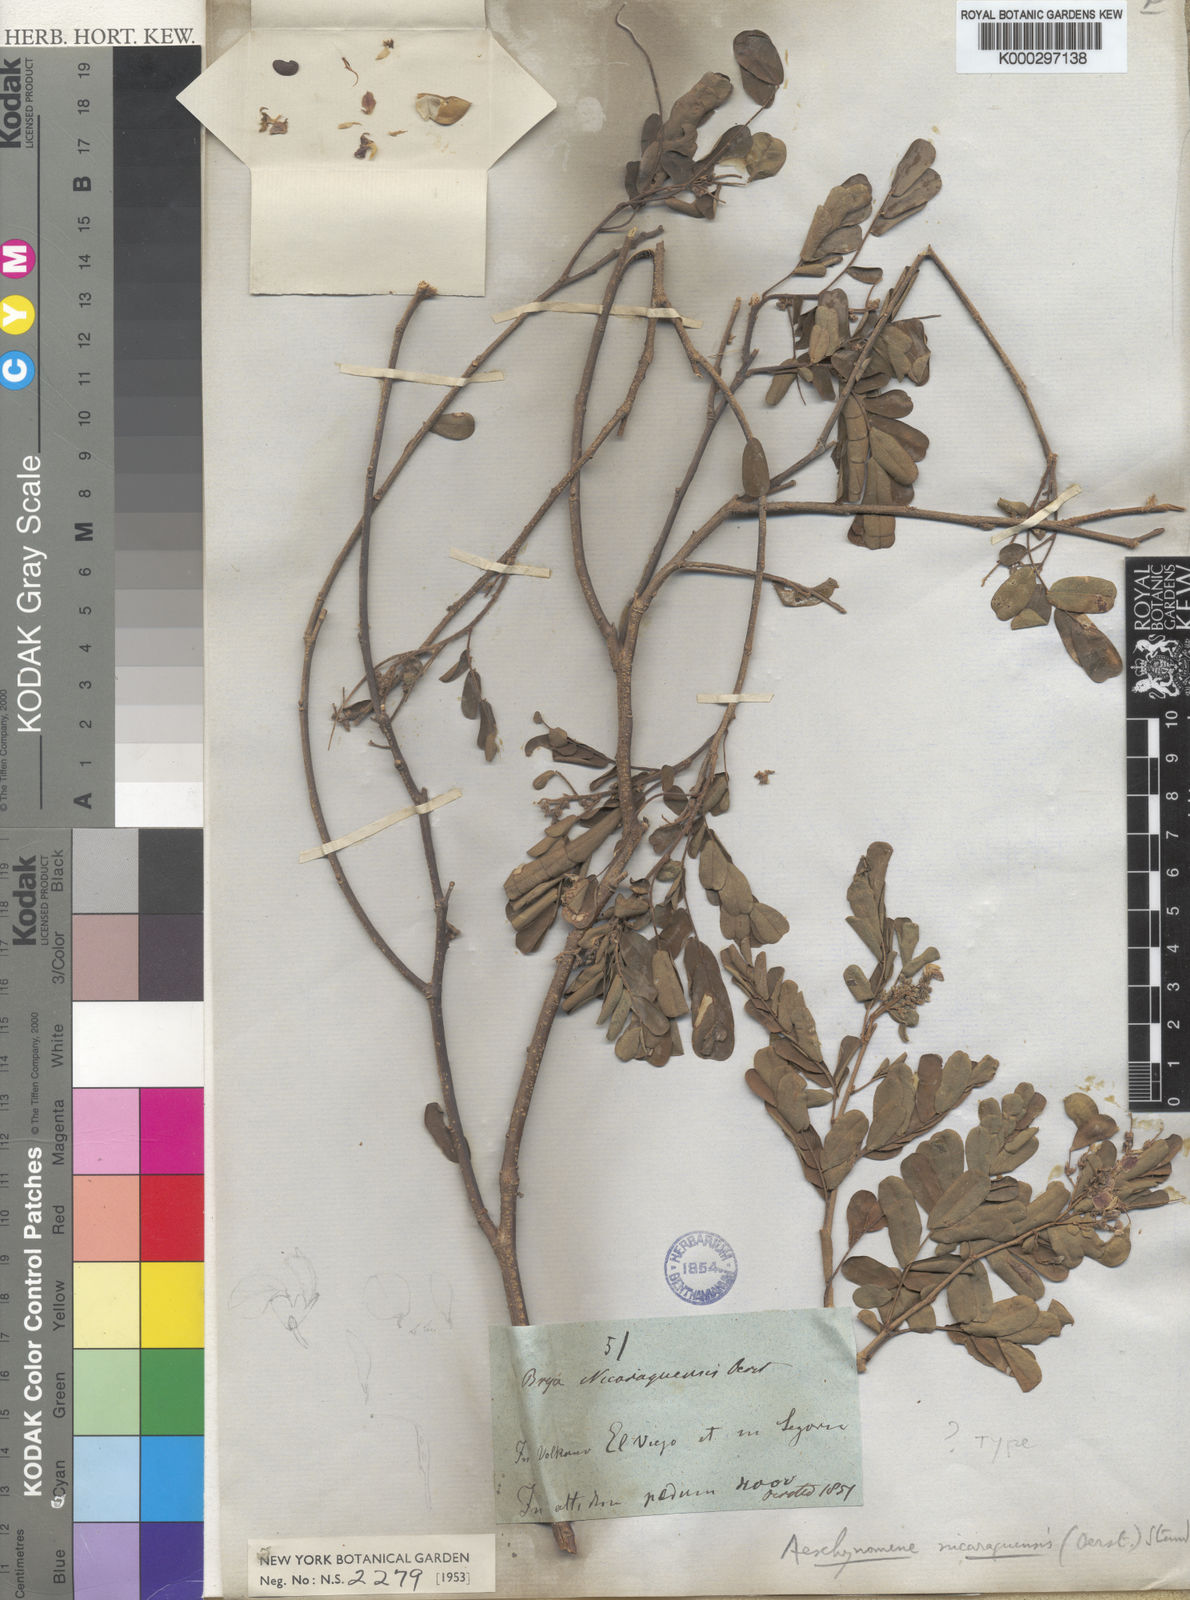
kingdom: Plantae
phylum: Tracheophyta
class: Magnoliopsida
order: Fabales
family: Fabaceae
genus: Ctenodon
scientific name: Ctenodon nicaraguensis
